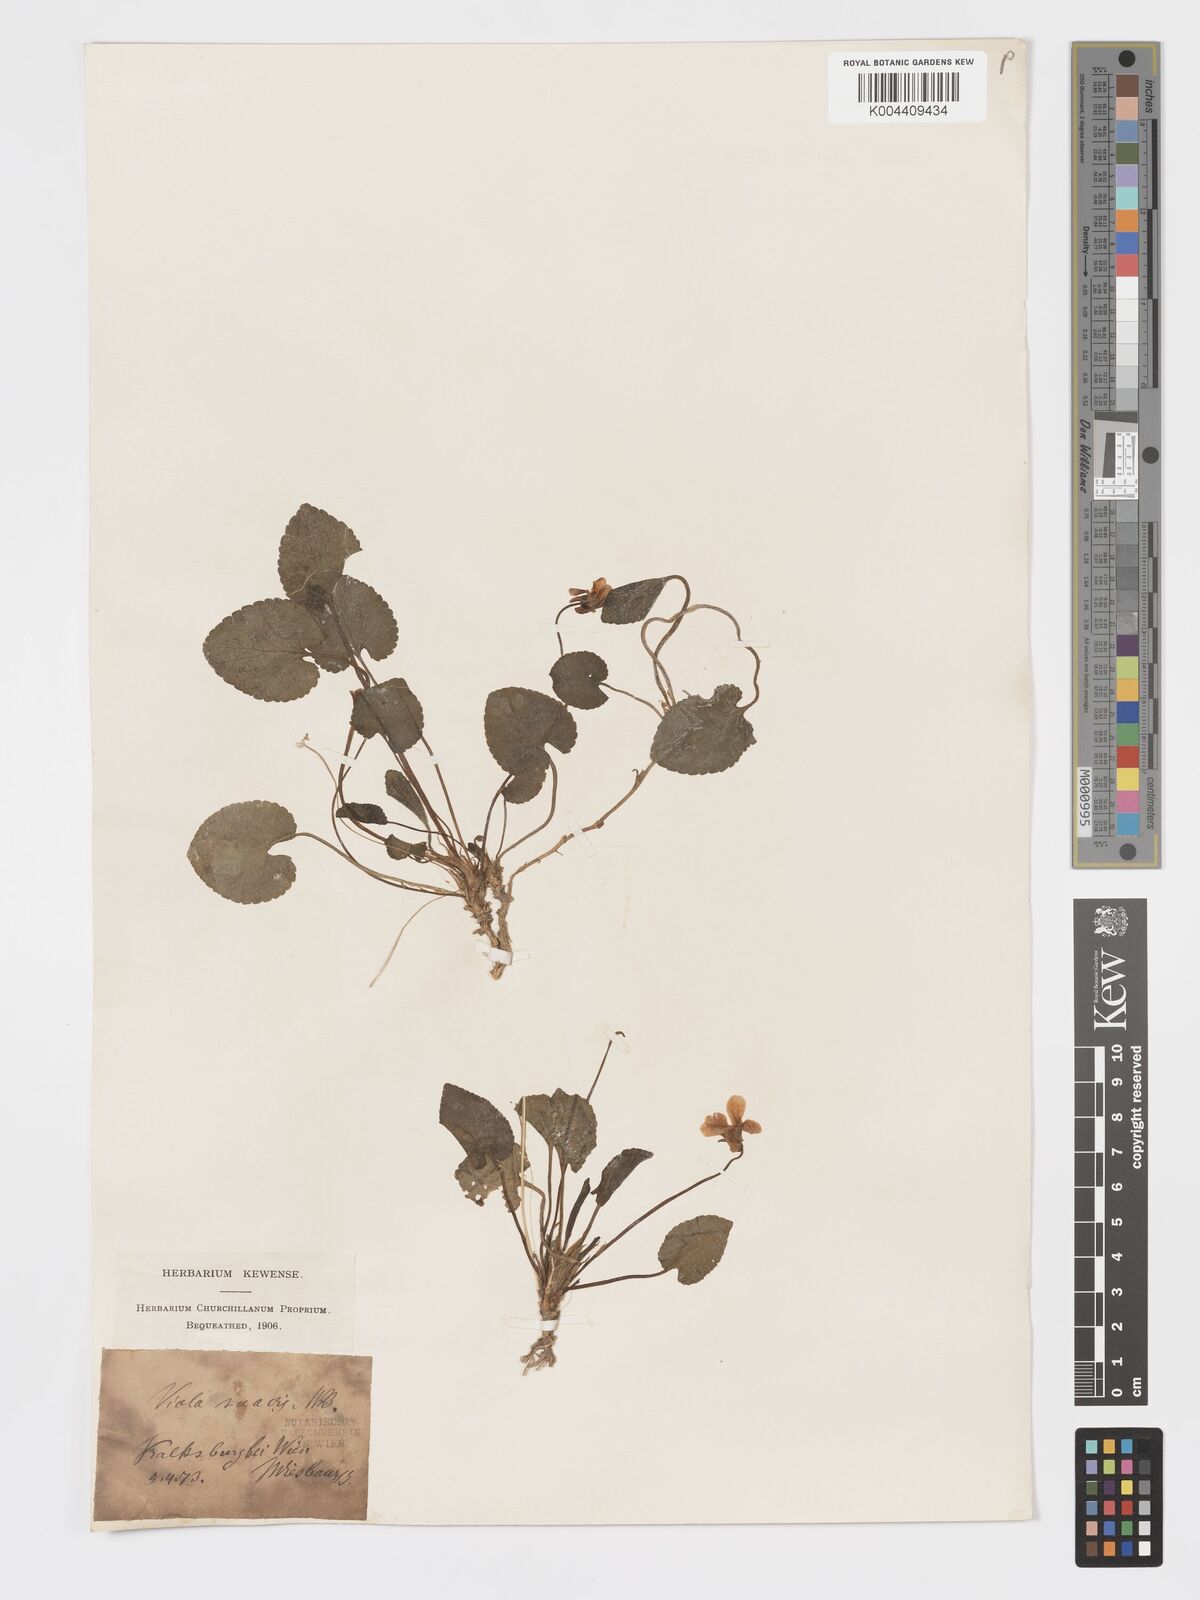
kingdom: Plantae
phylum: Tracheophyta
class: Magnoliopsida
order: Malpighiales
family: Violaceae
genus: Viola
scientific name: Viola kalksburgensis
